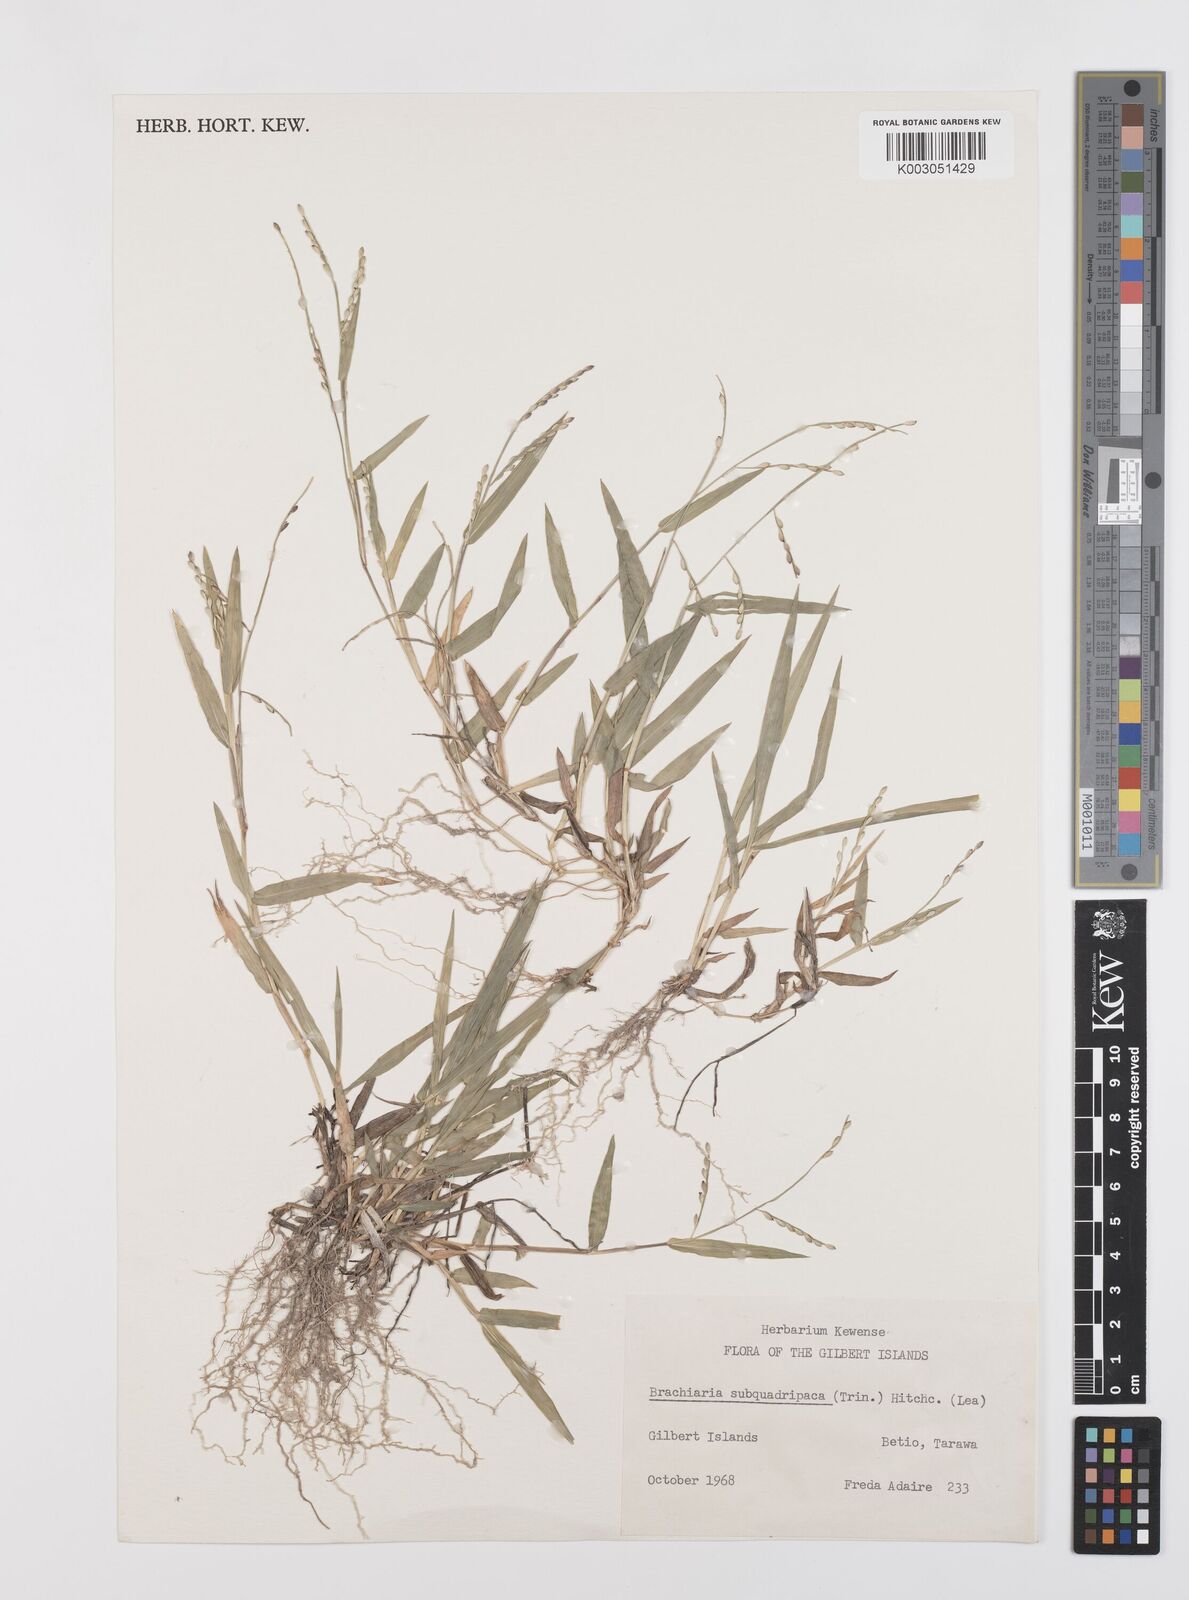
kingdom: Plantae
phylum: Tracheophyta
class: Liliopsida
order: Poales
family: Poaceae
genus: Urochloa
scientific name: Urochloa subquadripara
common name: Armgrass millet
